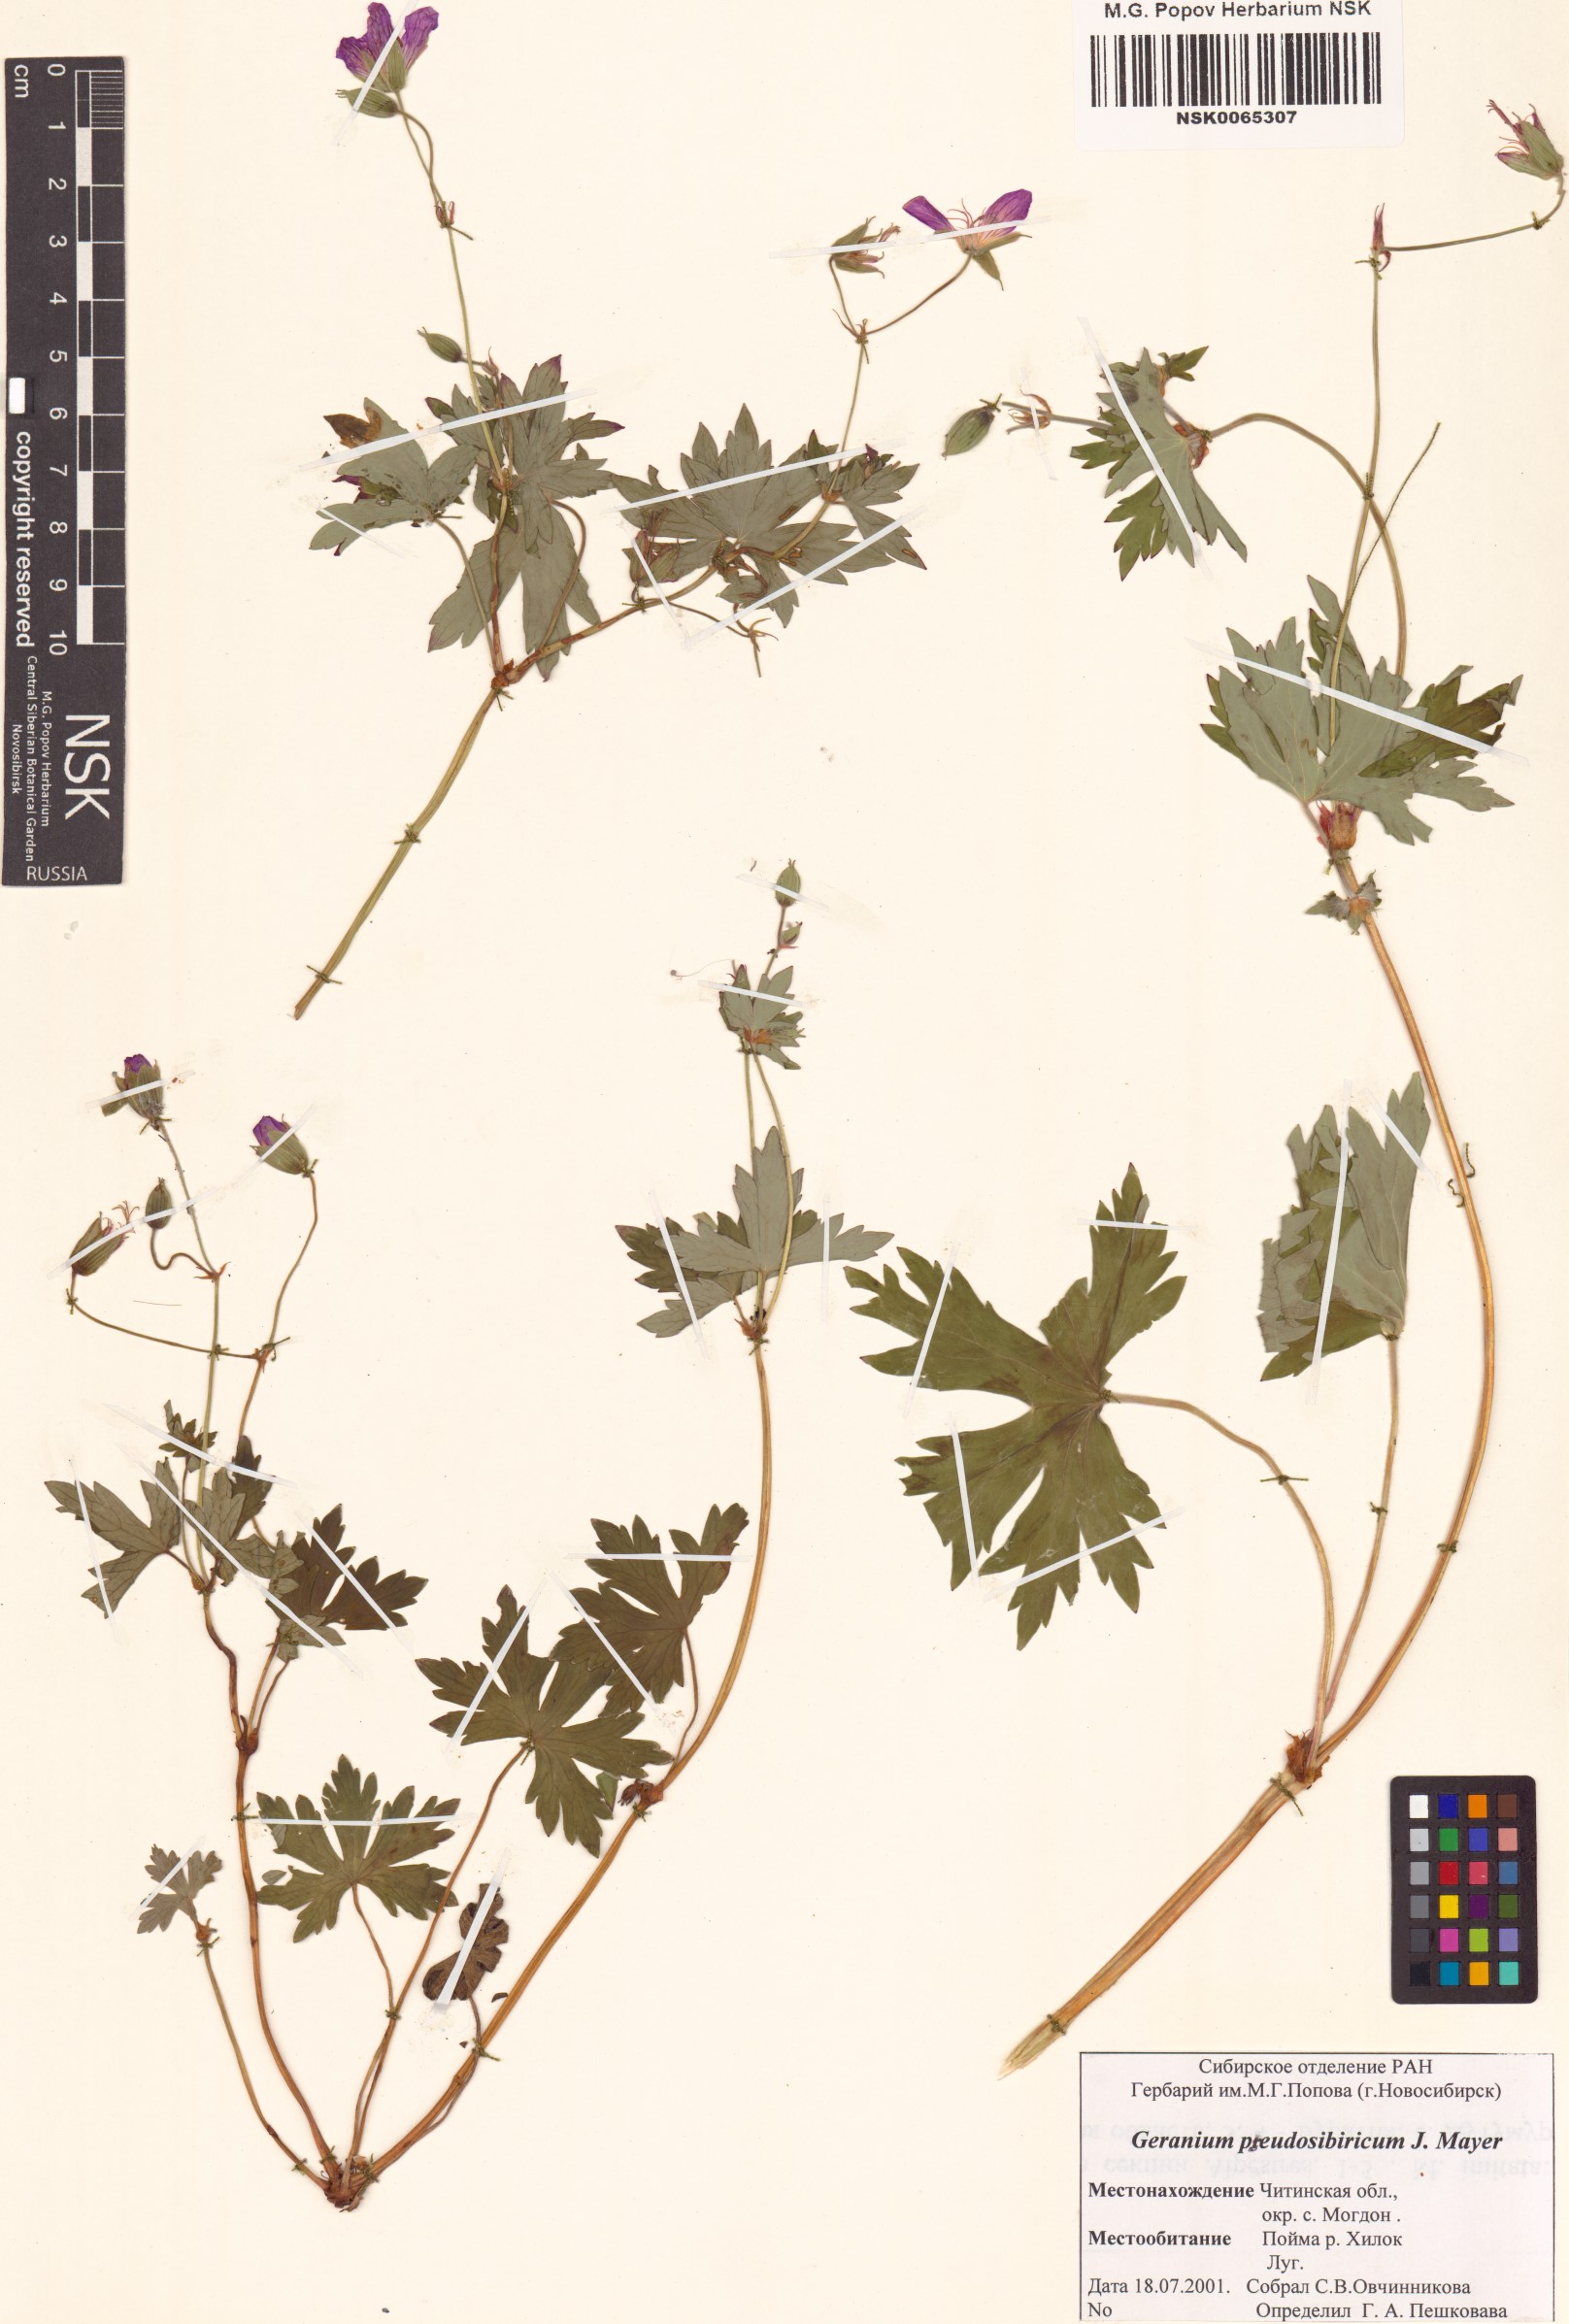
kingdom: Plantae
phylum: Tracheophyta
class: Magnoliopsida
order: Geraniales
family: Geraniaceae
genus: Geranium
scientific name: Geranium pseudosibiricum
